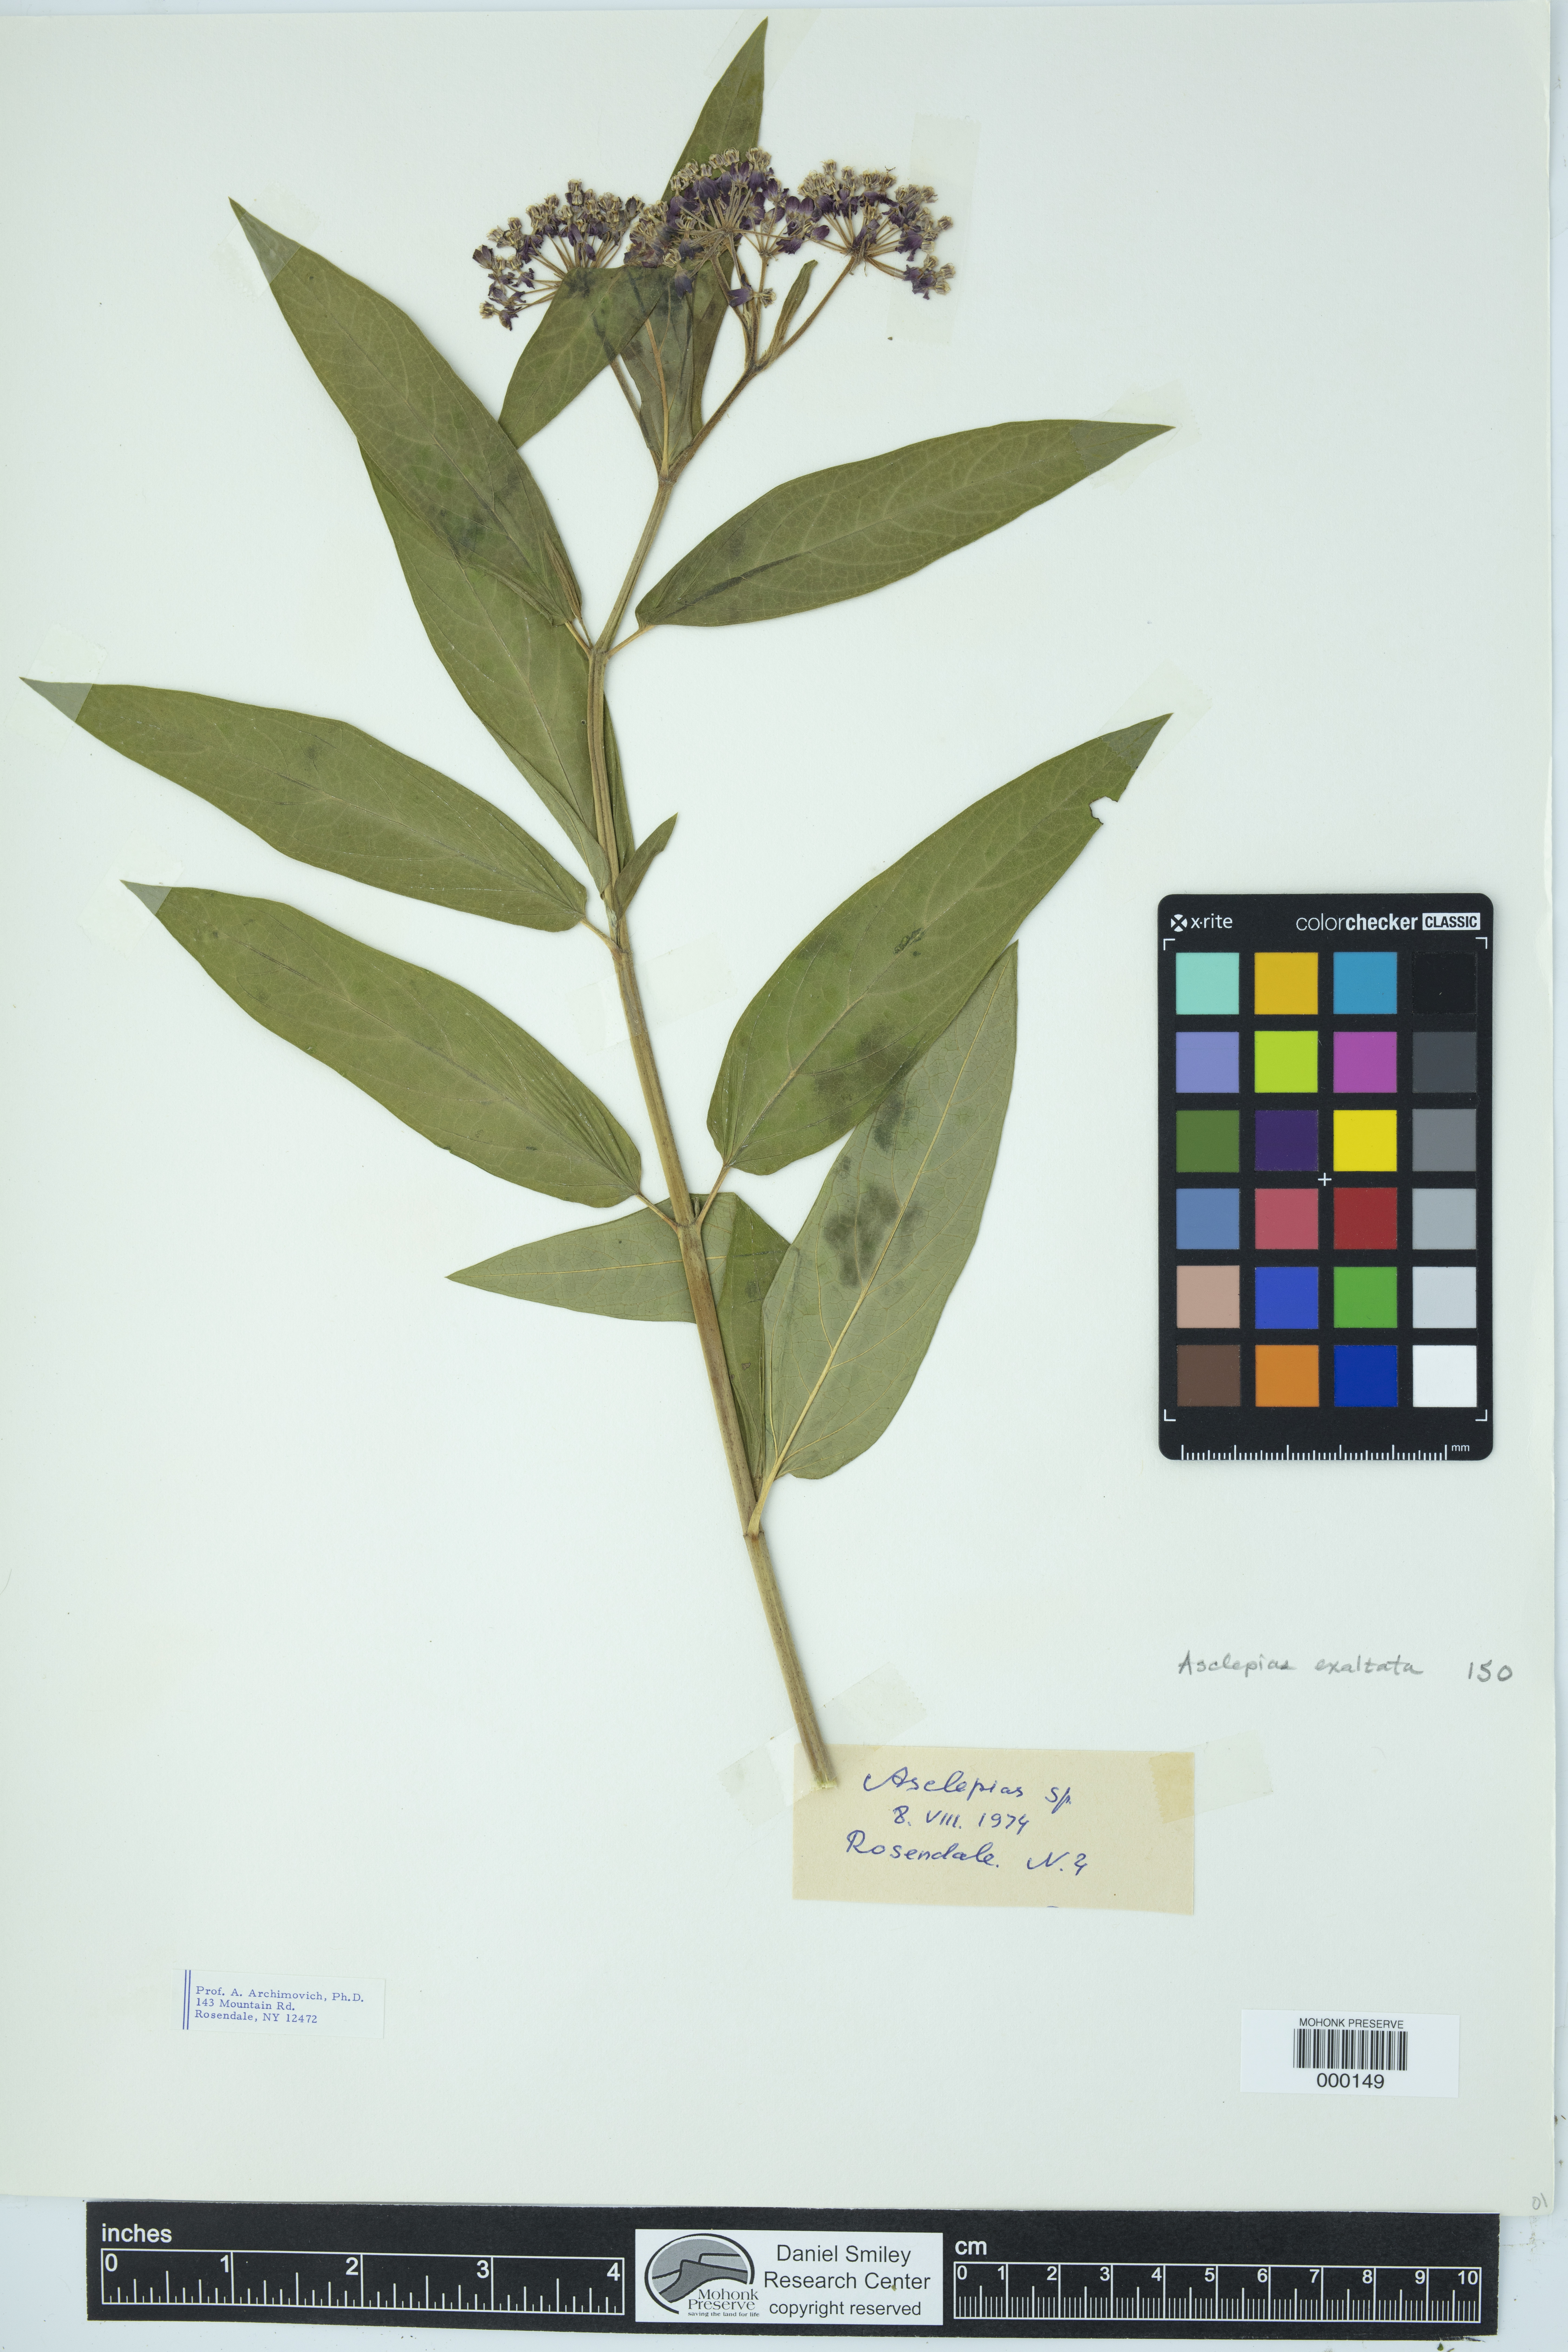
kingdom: Plantae
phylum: Tracheophyta
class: Magnoliopsida
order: Gentianales
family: Apocynaceae
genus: Asclepias
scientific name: Asclepias exaltata
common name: Poke milkweed
